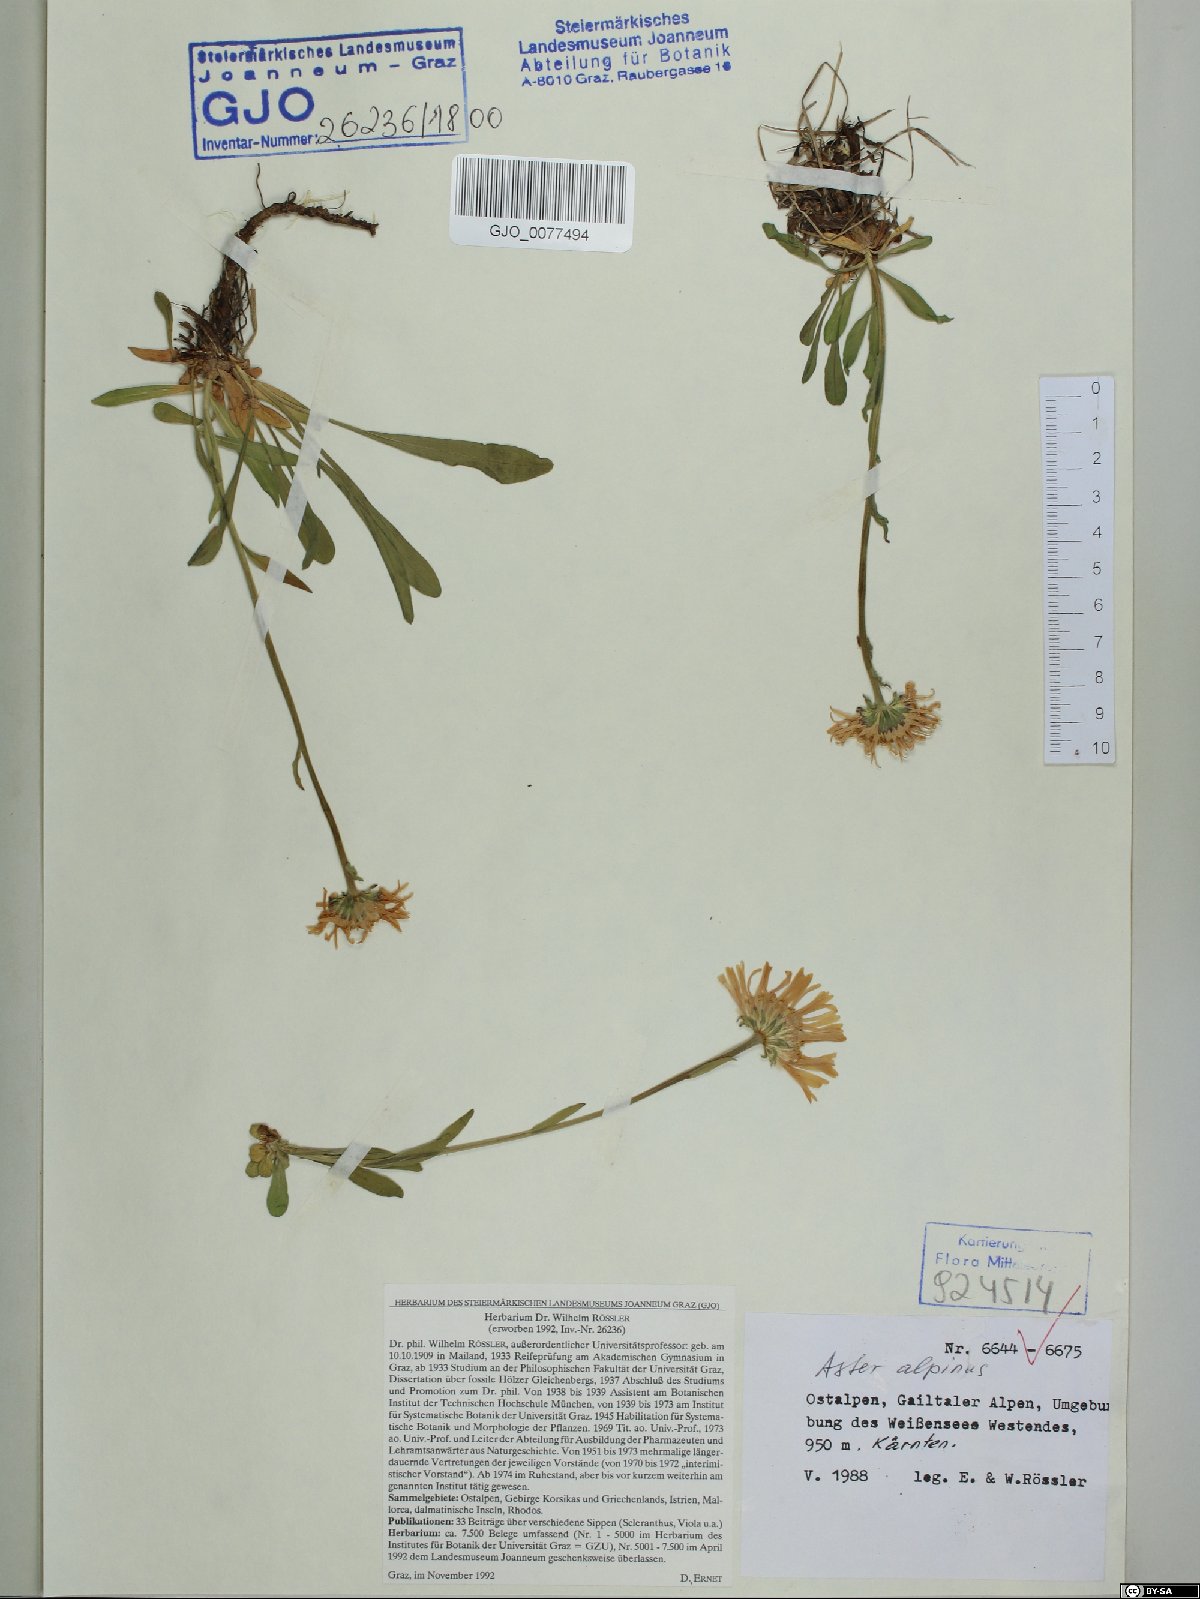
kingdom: Plantae
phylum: Tracheophyta
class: Magnoliopsida
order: Asterales
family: Asteraceae
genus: Aster
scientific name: Aster alpinus
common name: Alpine aster
